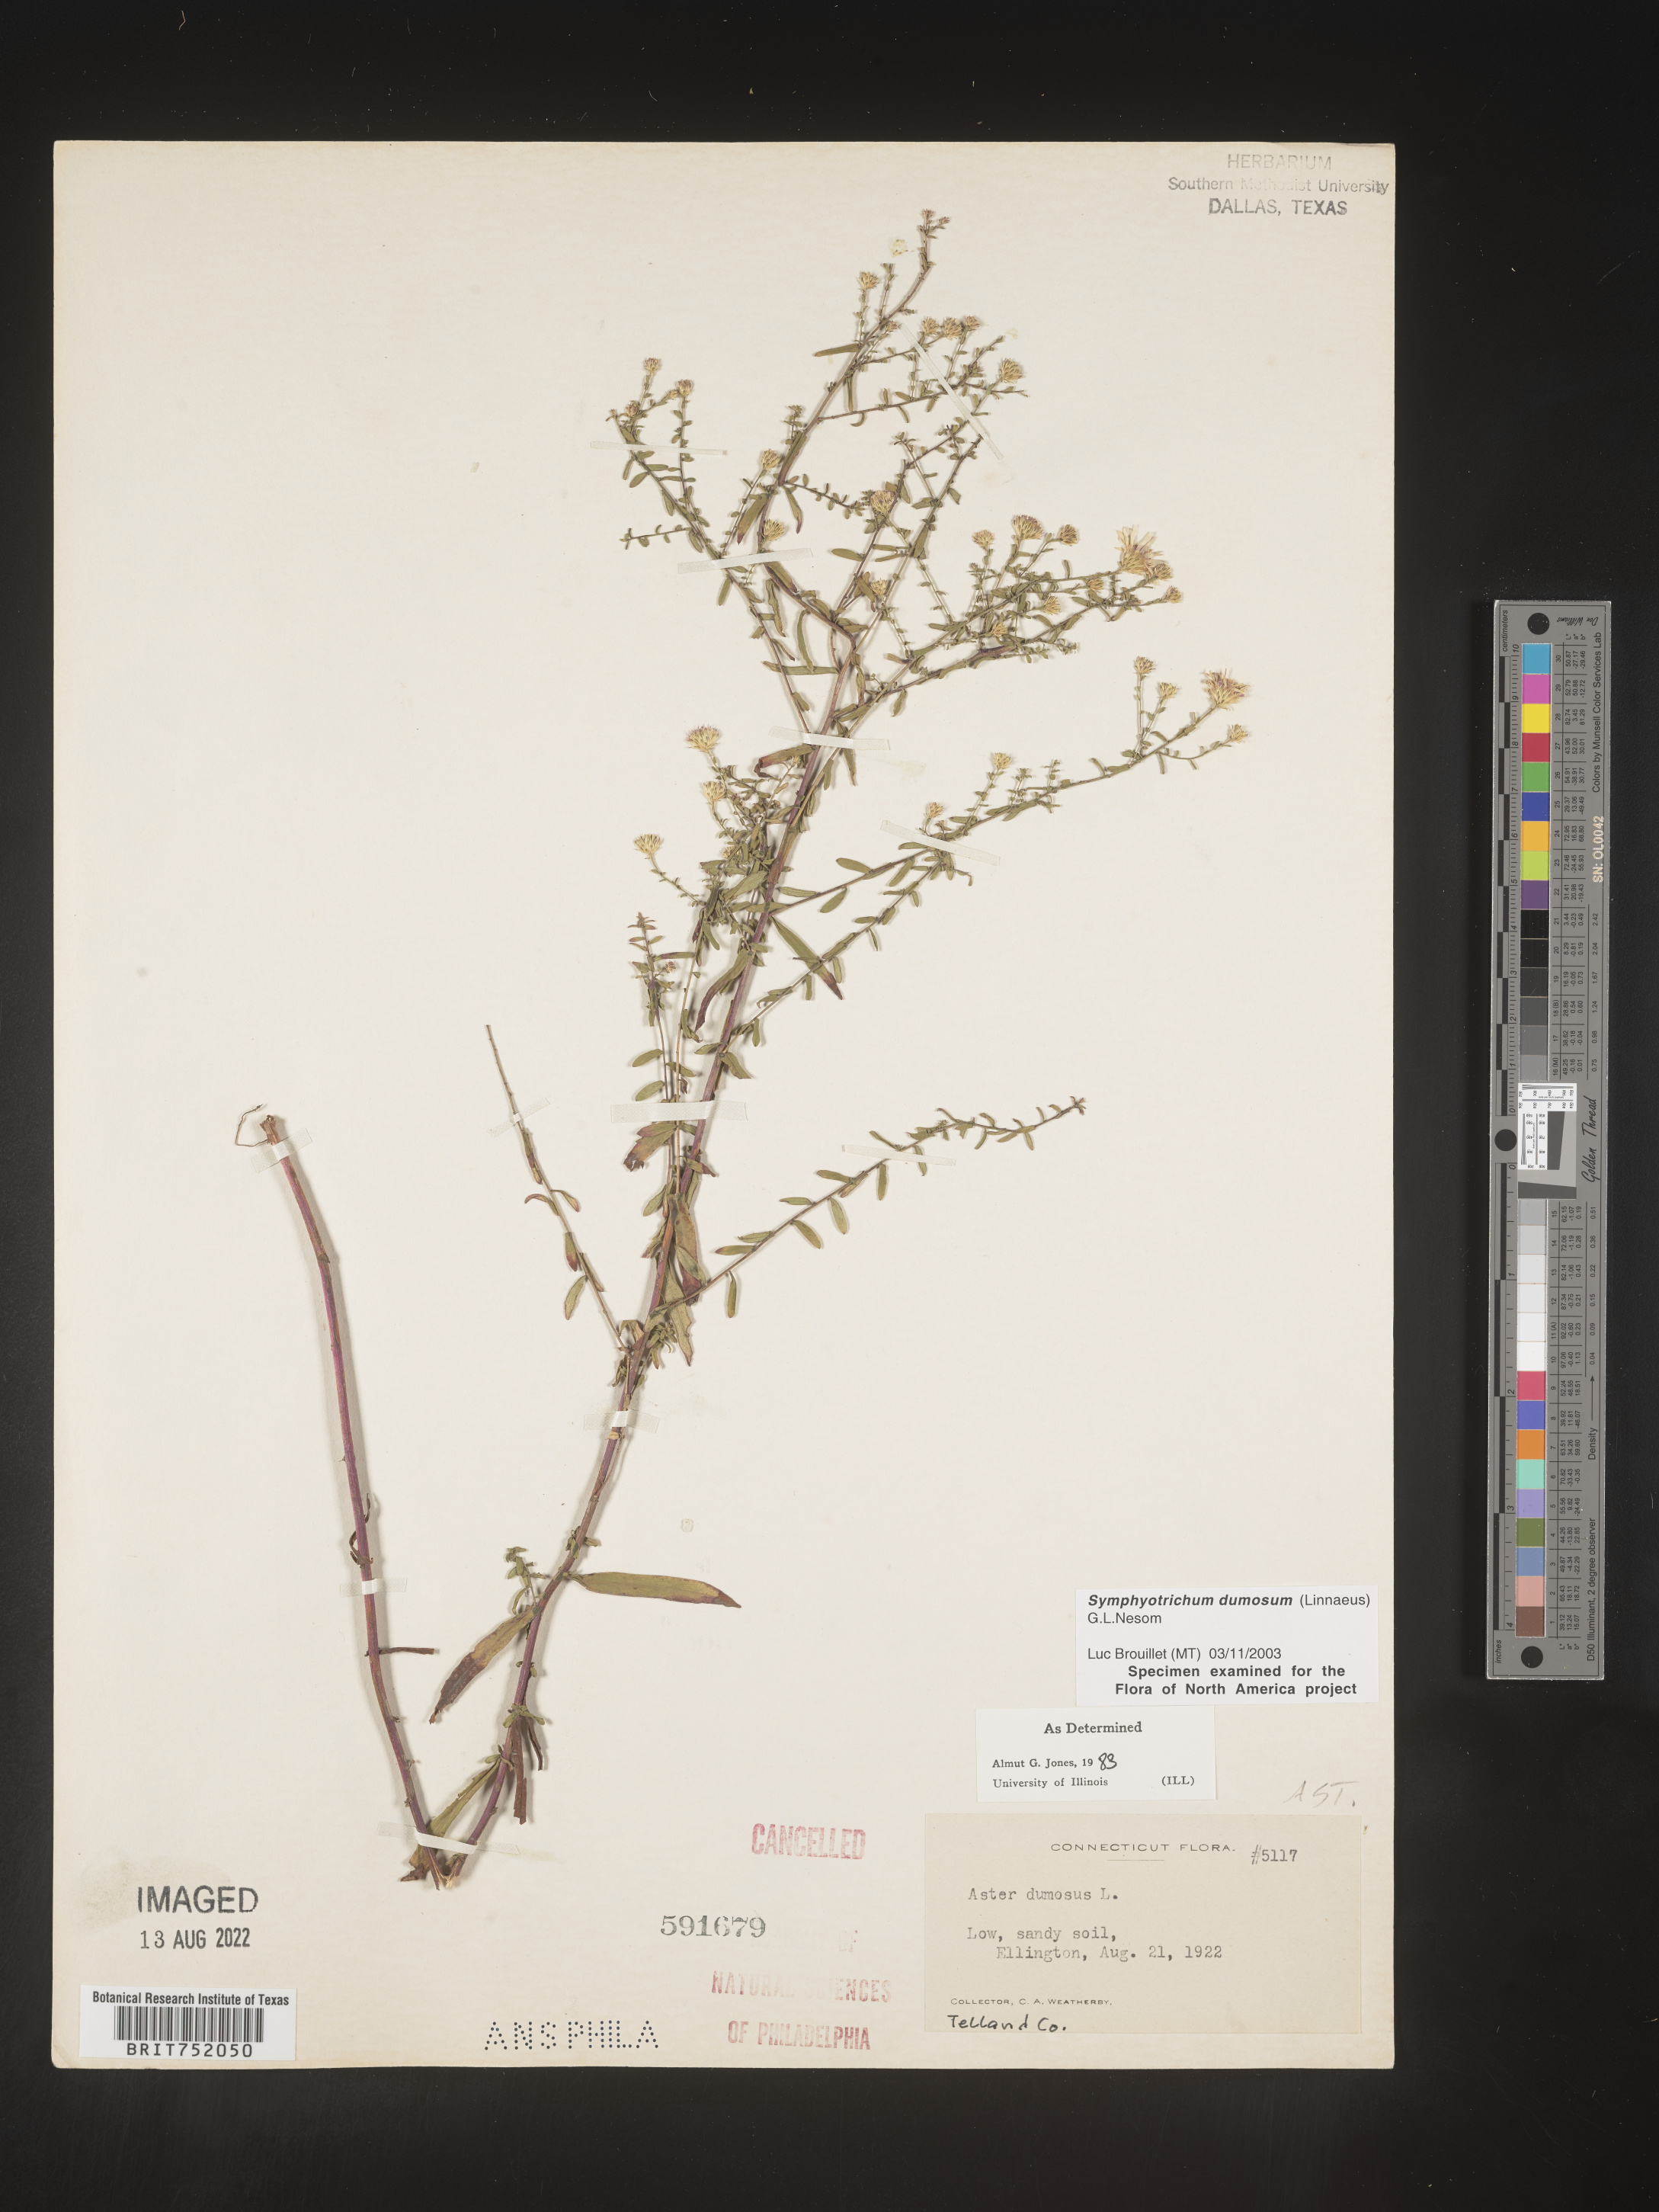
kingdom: Plantae
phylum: Tracheophyta
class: Magnoliopsida
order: Asterales
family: Asteraceae
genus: Symphyotrichum
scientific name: Symphyotrichum dumosum
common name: Bushy aster
